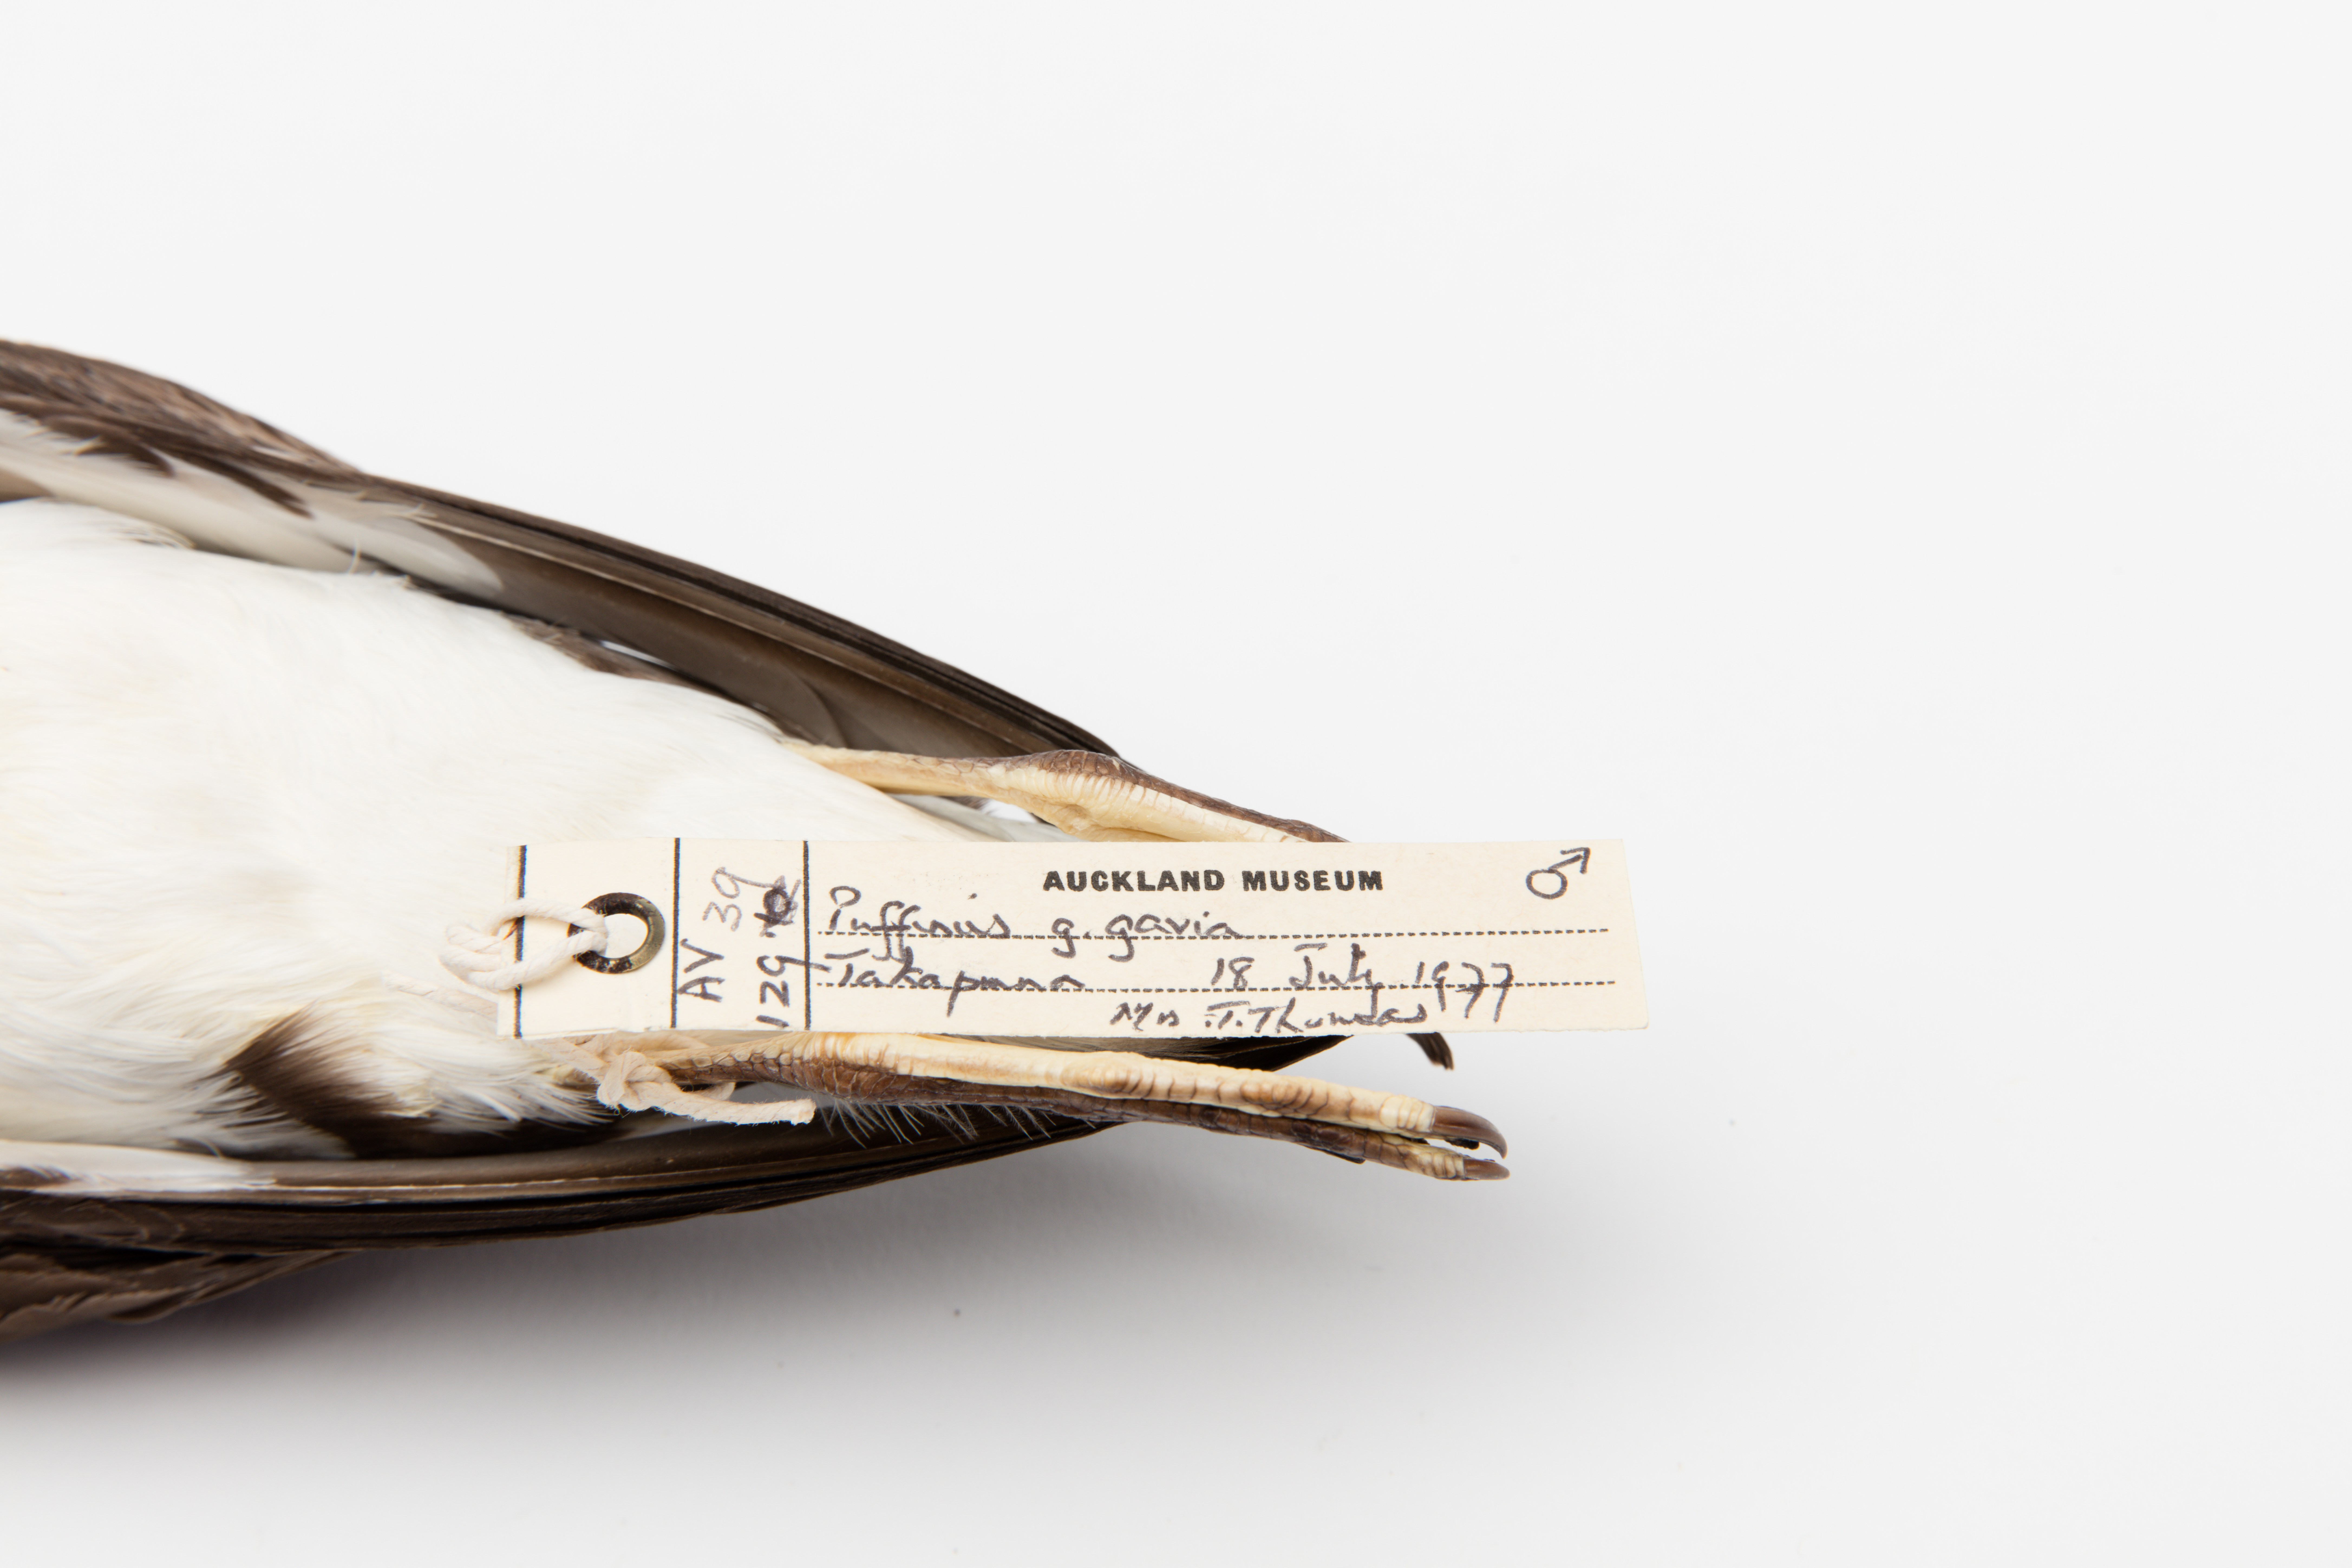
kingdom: Animalia
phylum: Chordata
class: Aves
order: Procellariiformes
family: Procellariidae
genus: Ardenna
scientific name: Ardenna
